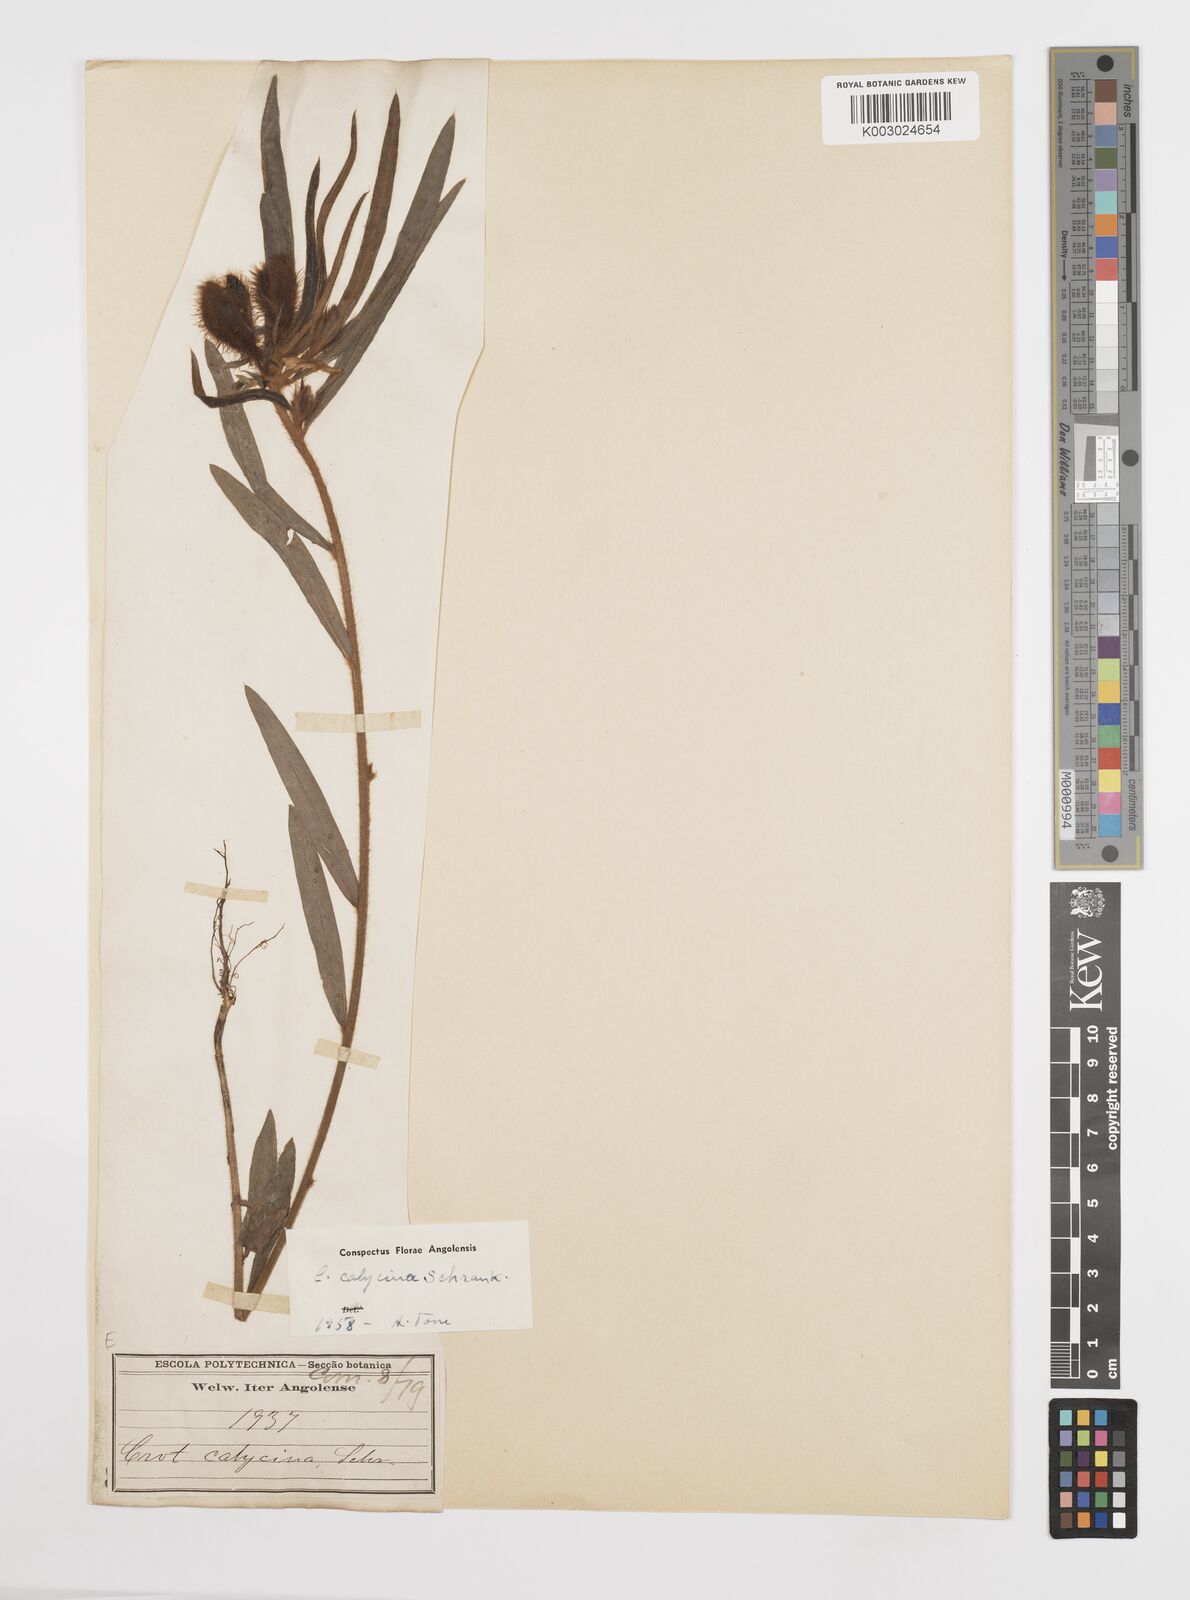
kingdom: Plantae
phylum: Tracheophyta
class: Magnoliopsida
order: Fabales
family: Fabaceae
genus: Crotalaria
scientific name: Crotalaria calycina
